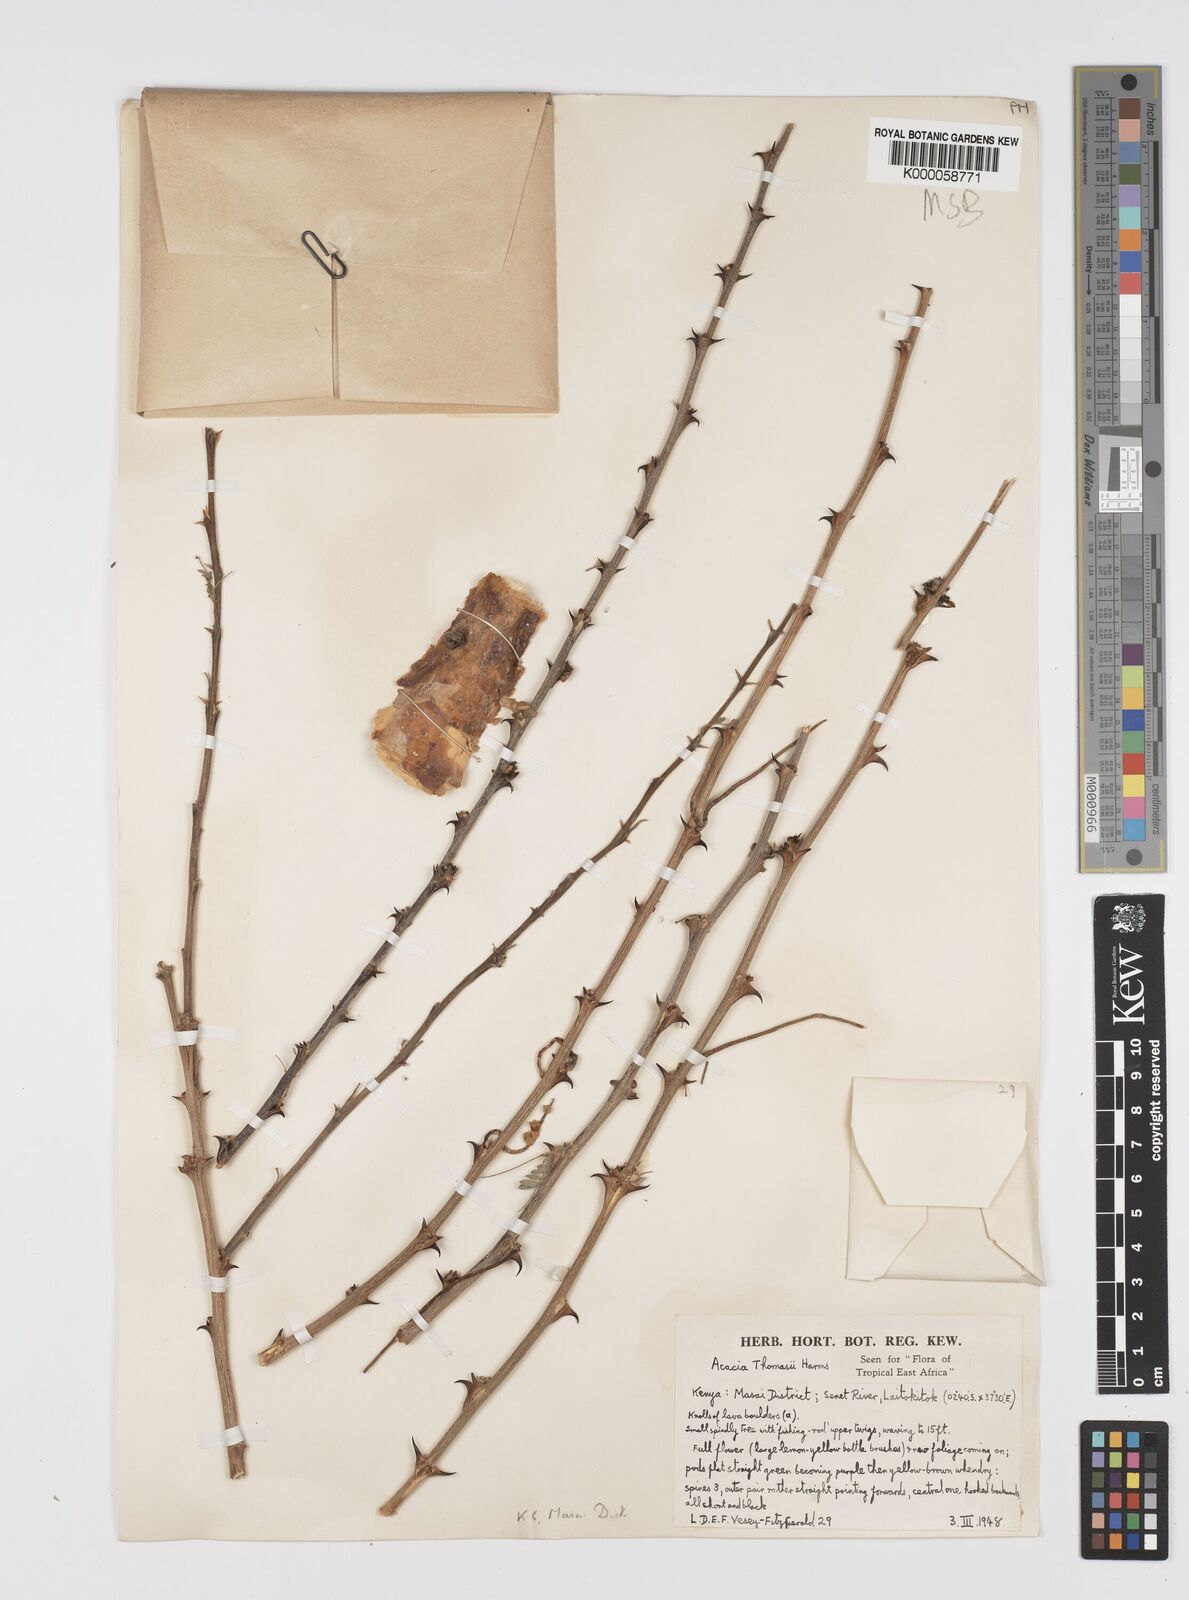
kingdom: Plantae
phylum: Tracheophyta
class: Magnoliopsida
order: Fabales
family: Fabaceae
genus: Senegalia
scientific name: Senegalia thomasii
